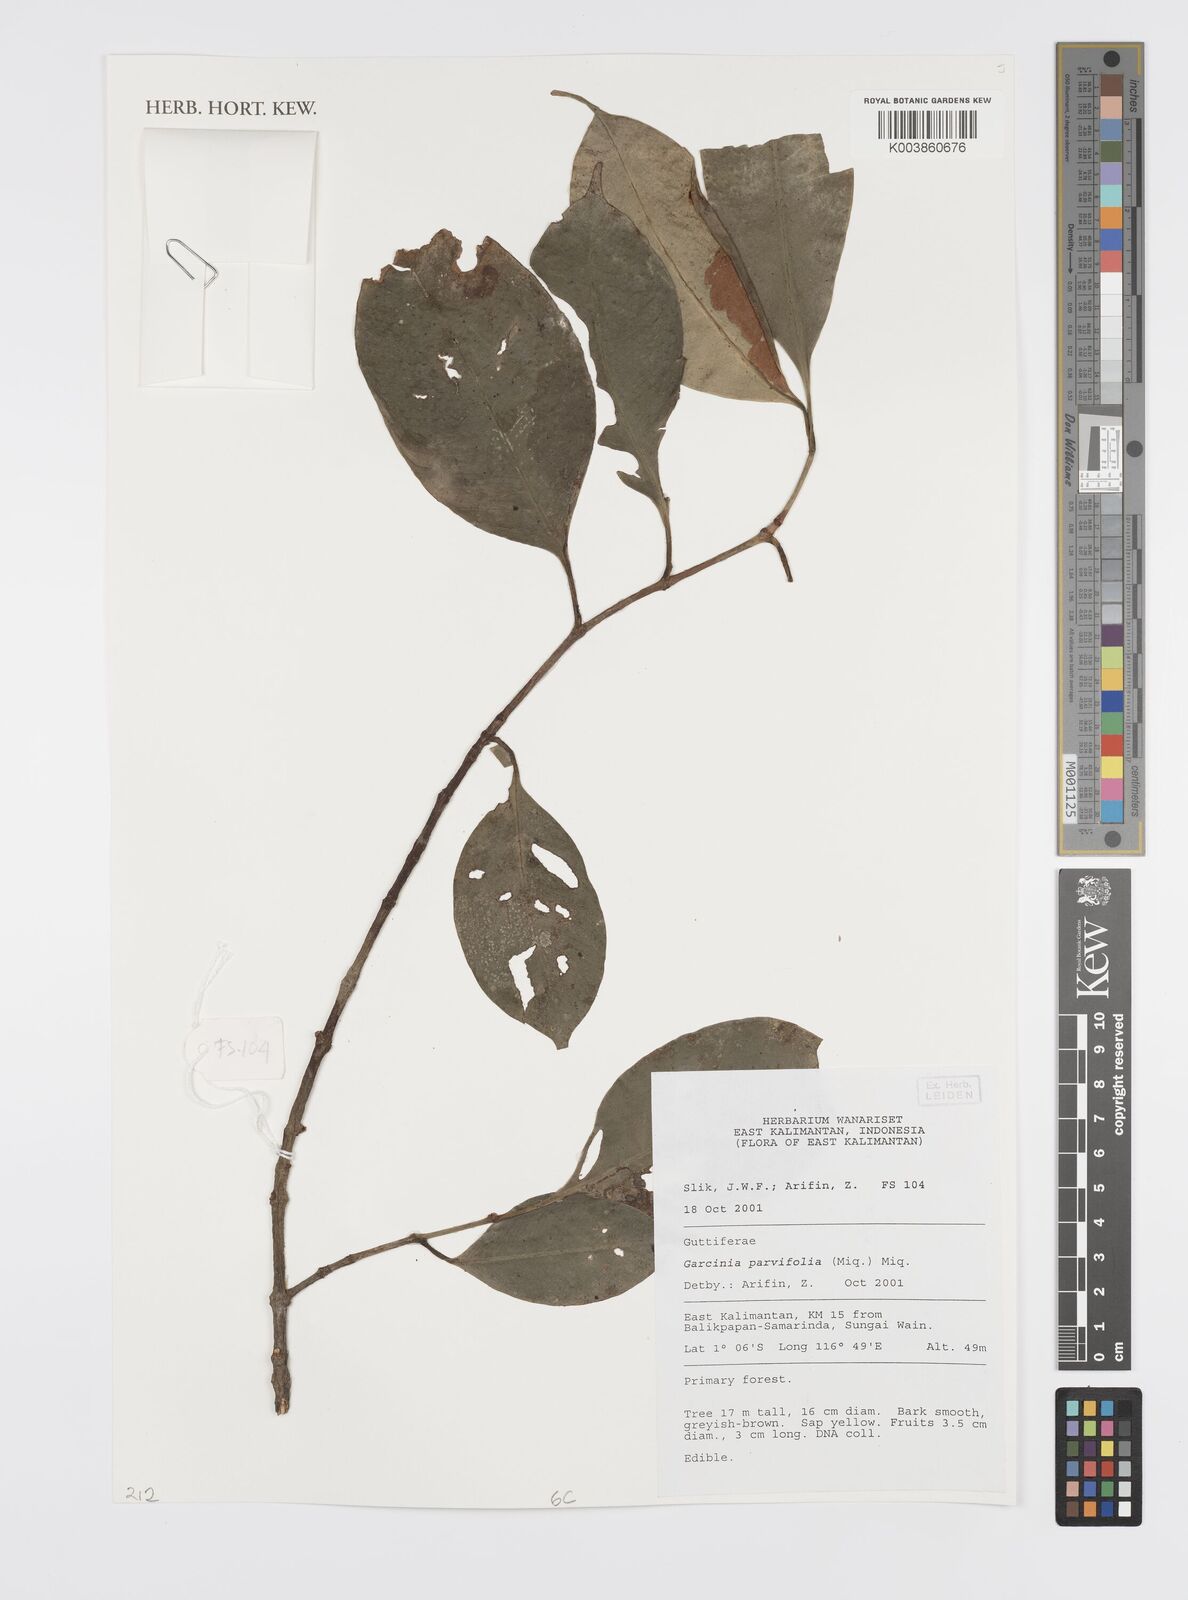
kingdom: Plantae
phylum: Tracheophyta
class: Magnoliopsida
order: Malpighiales
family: Clusiaceae
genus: Garcinia
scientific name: Garcinia parvifolia
